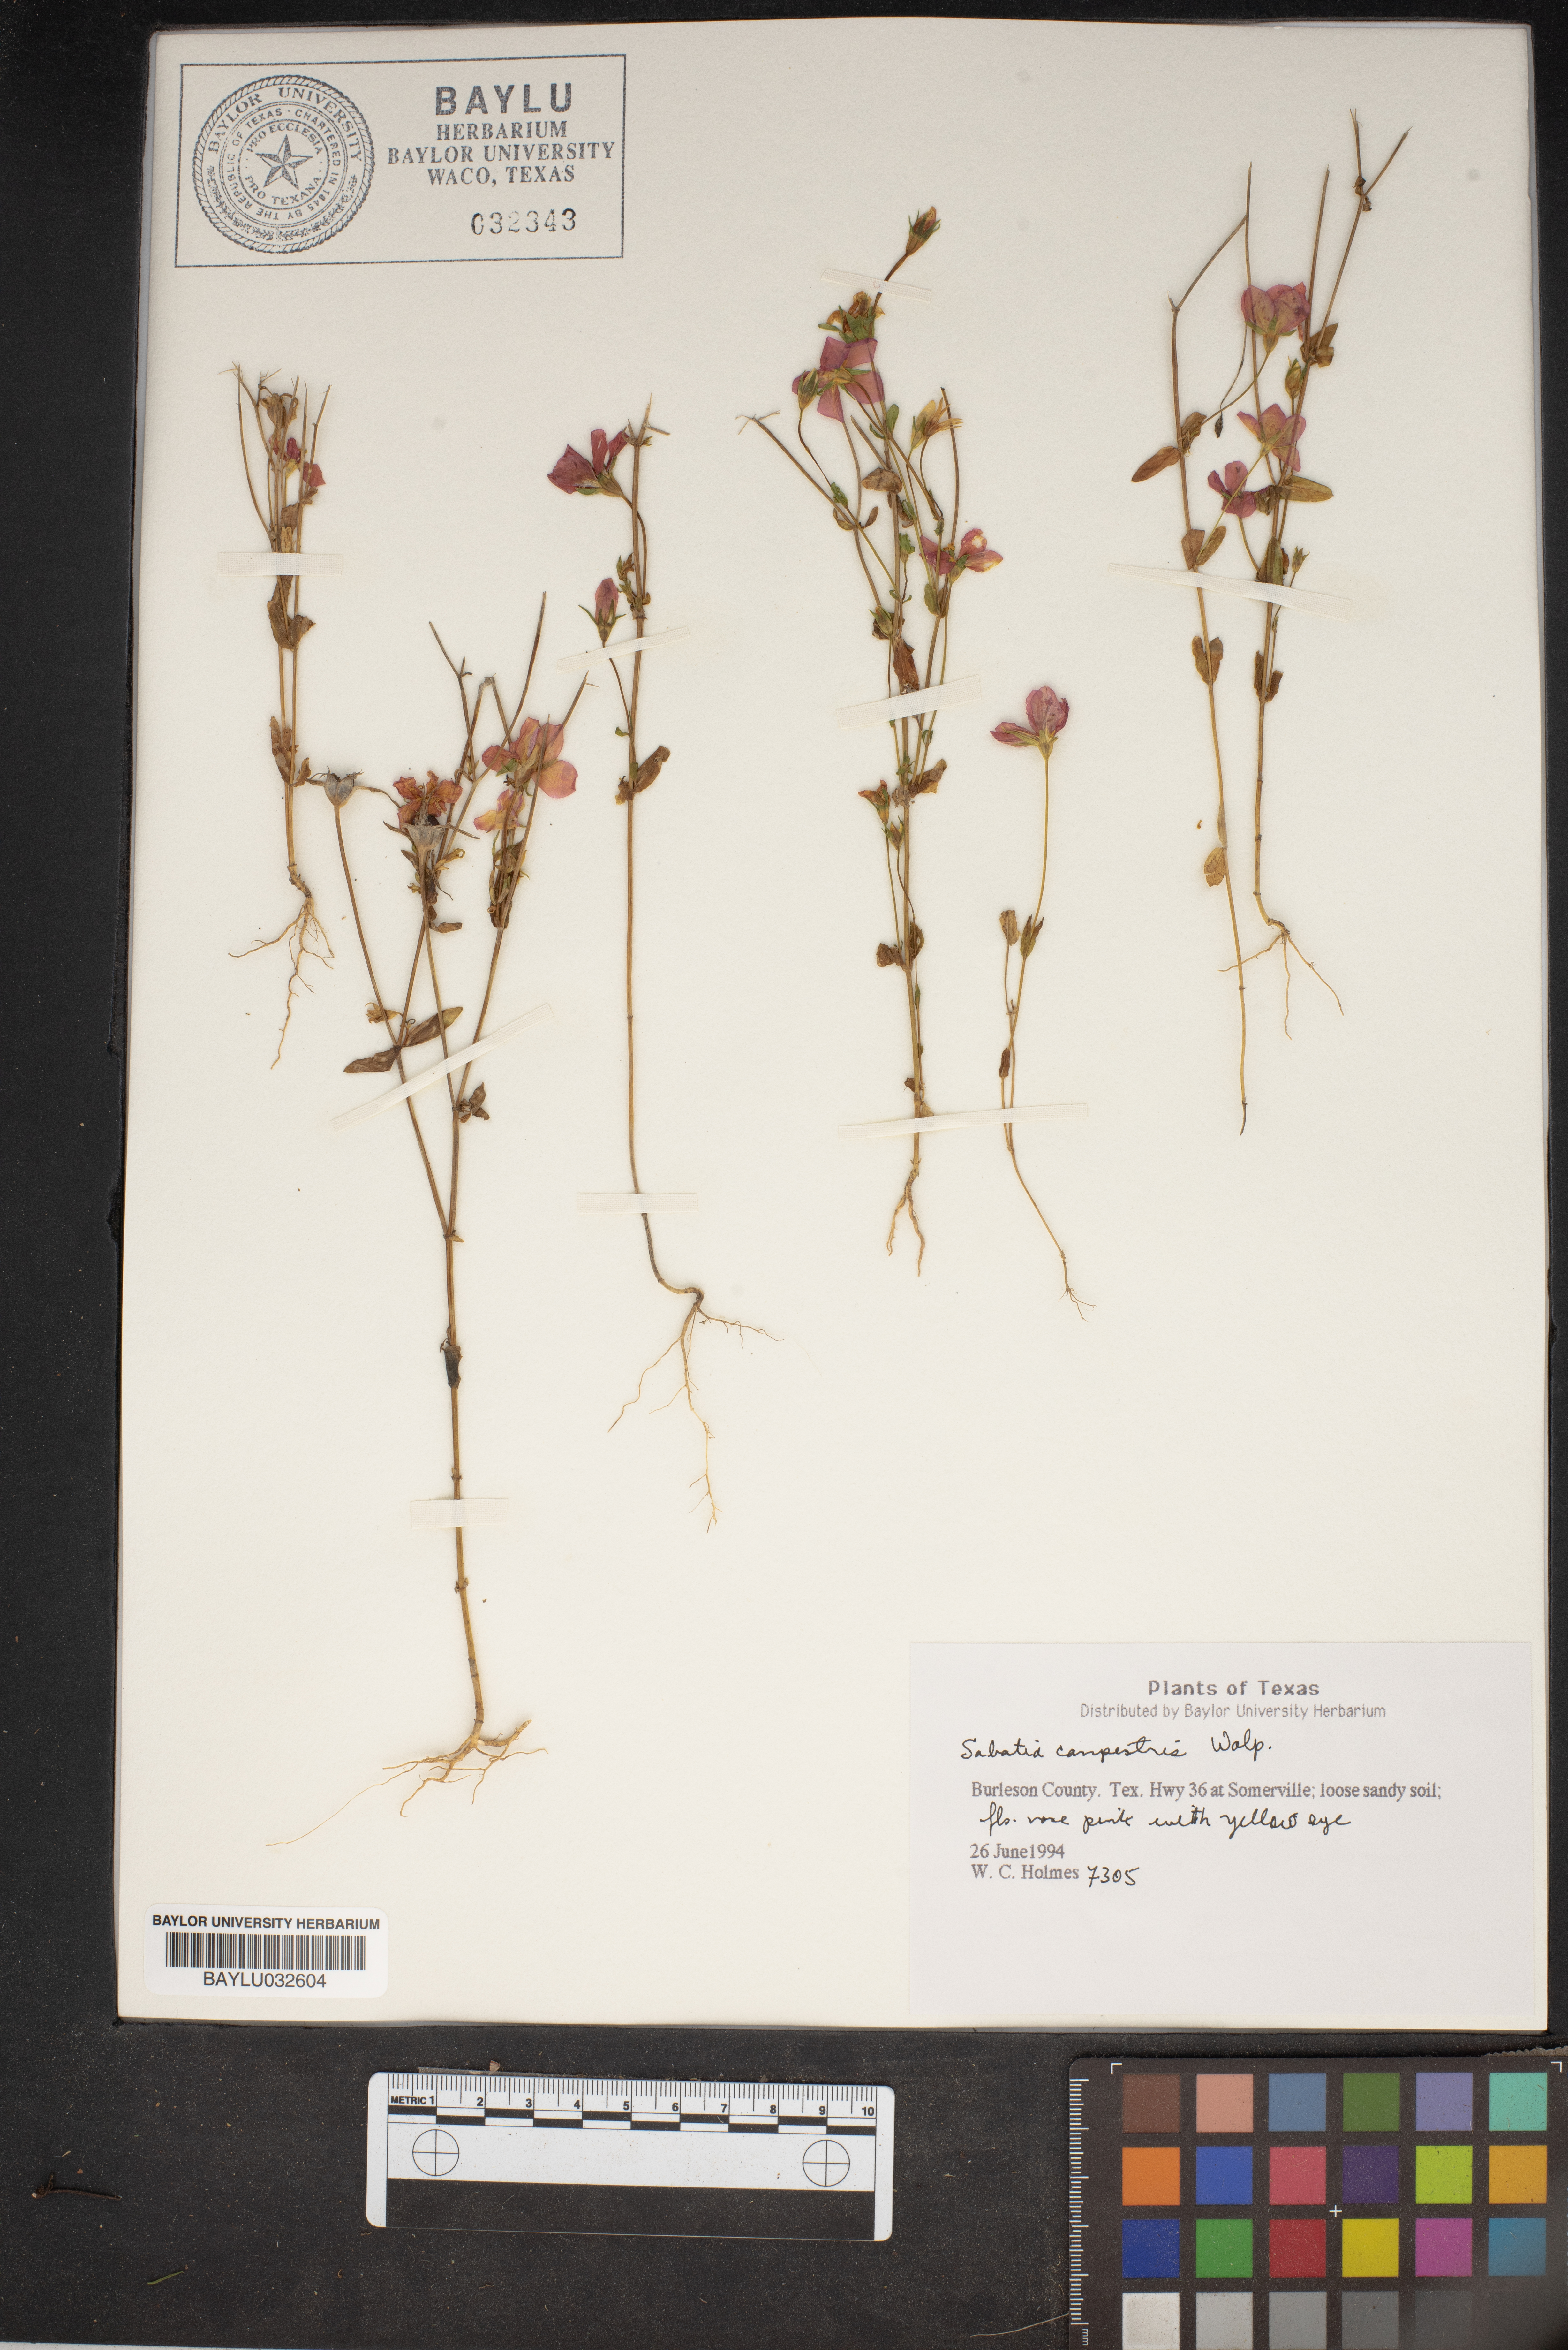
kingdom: Plantae
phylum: Tracheophyta
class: Magnoliopsida
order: Gentianales
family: Gentianaceae
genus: Sabatia
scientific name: Sabatia campestris
